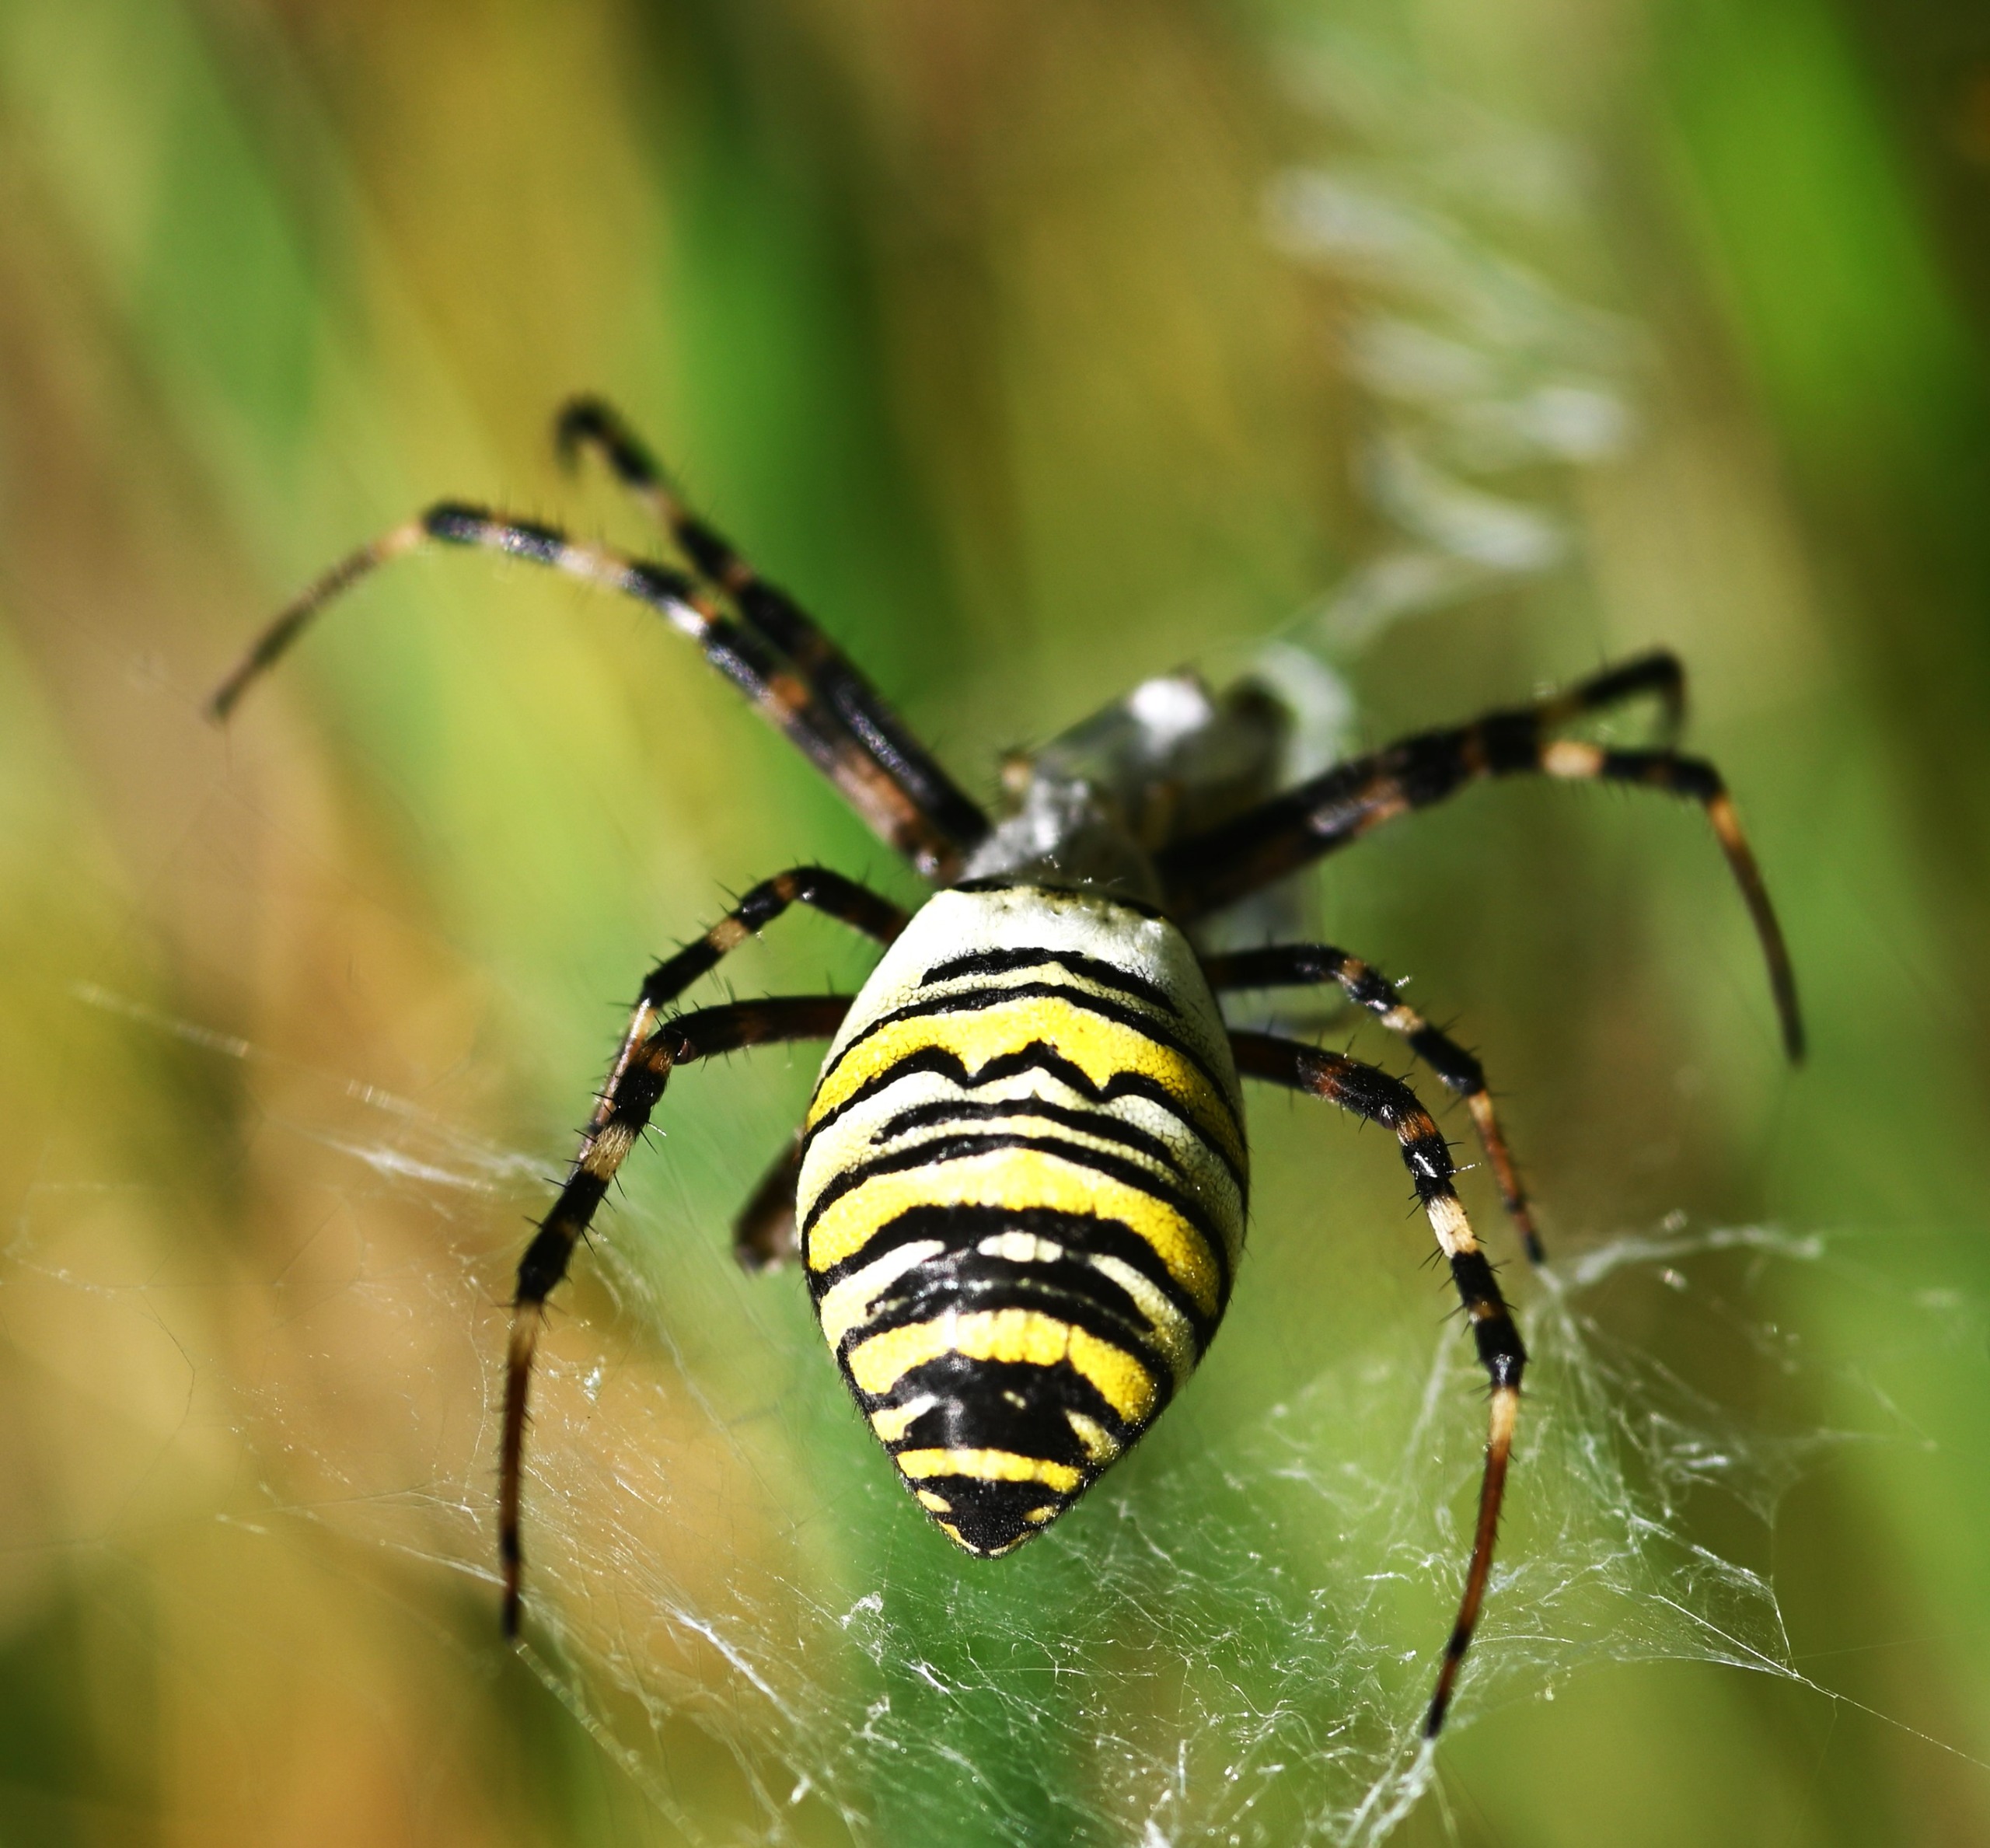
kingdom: Animalia
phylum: Arthropoda
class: Arachnida
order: Araneae
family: Araneidae
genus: Argiope
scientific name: Argiope bruennichi
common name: Hvepseedderkop
